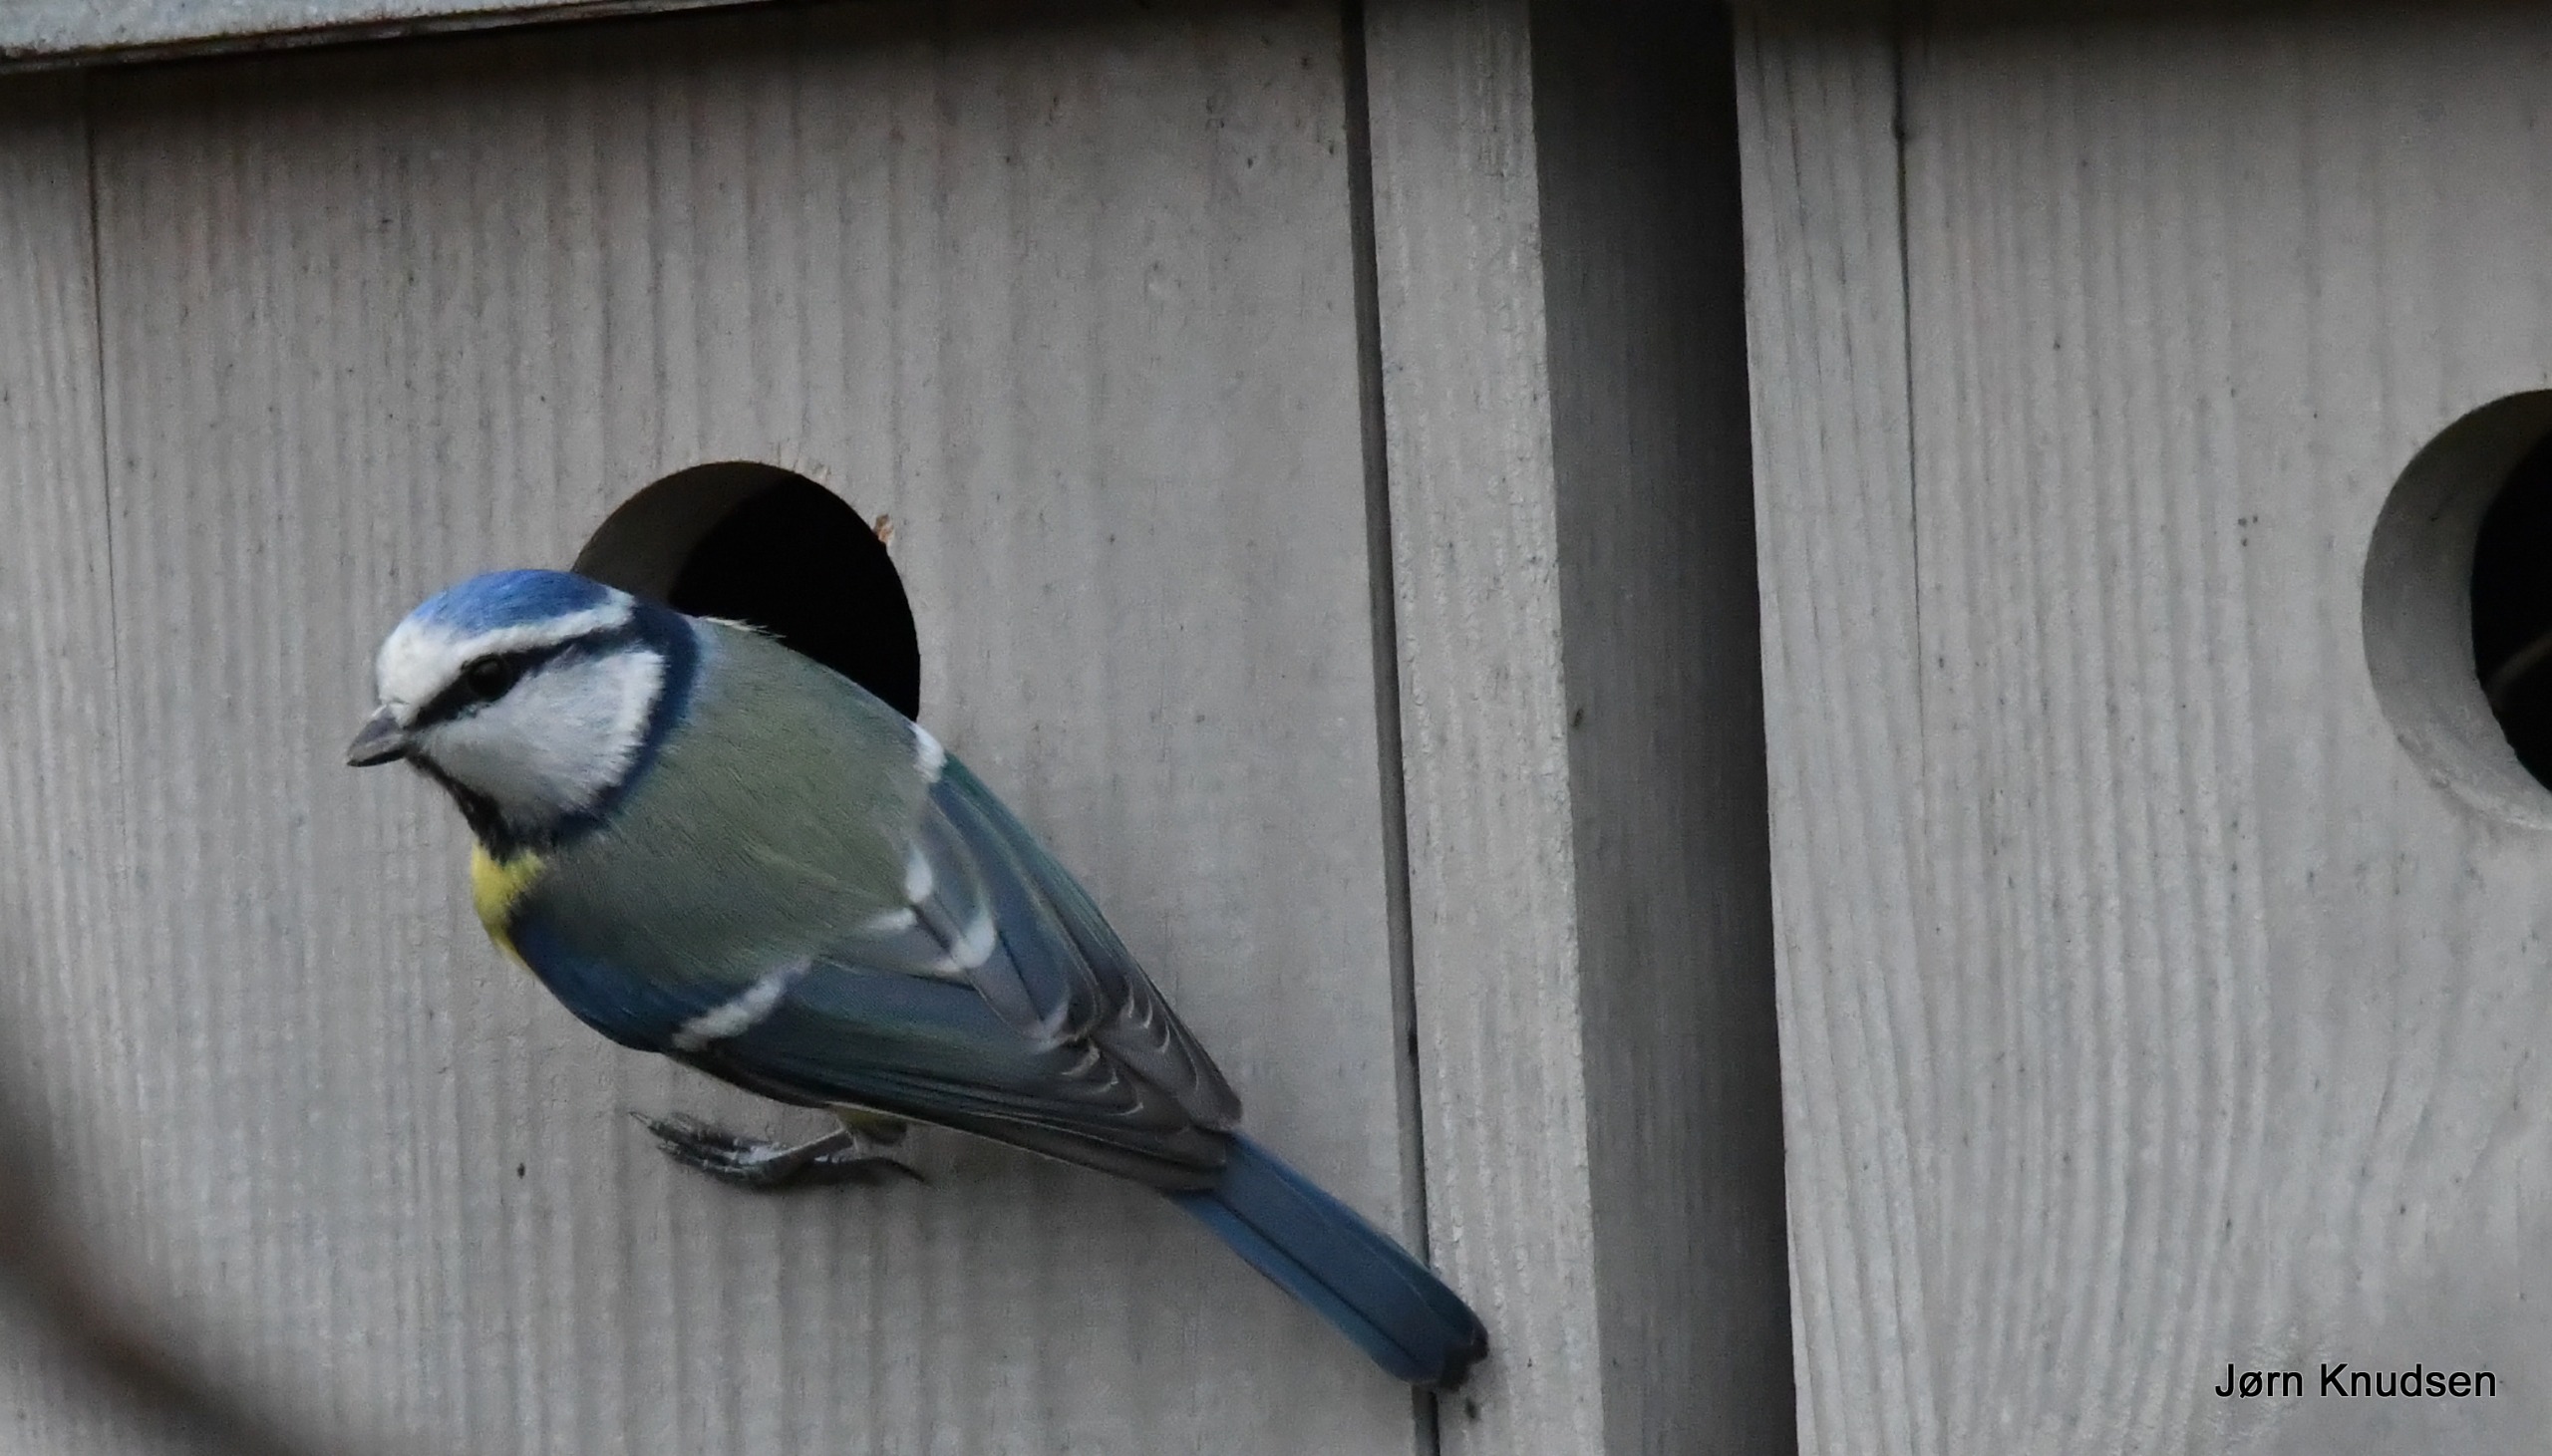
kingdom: Animalia
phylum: Chordata
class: Aves
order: Passeriformes
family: Paridae
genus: Cyanistes
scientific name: Cyanistes caeruleus
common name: Blåmejse
